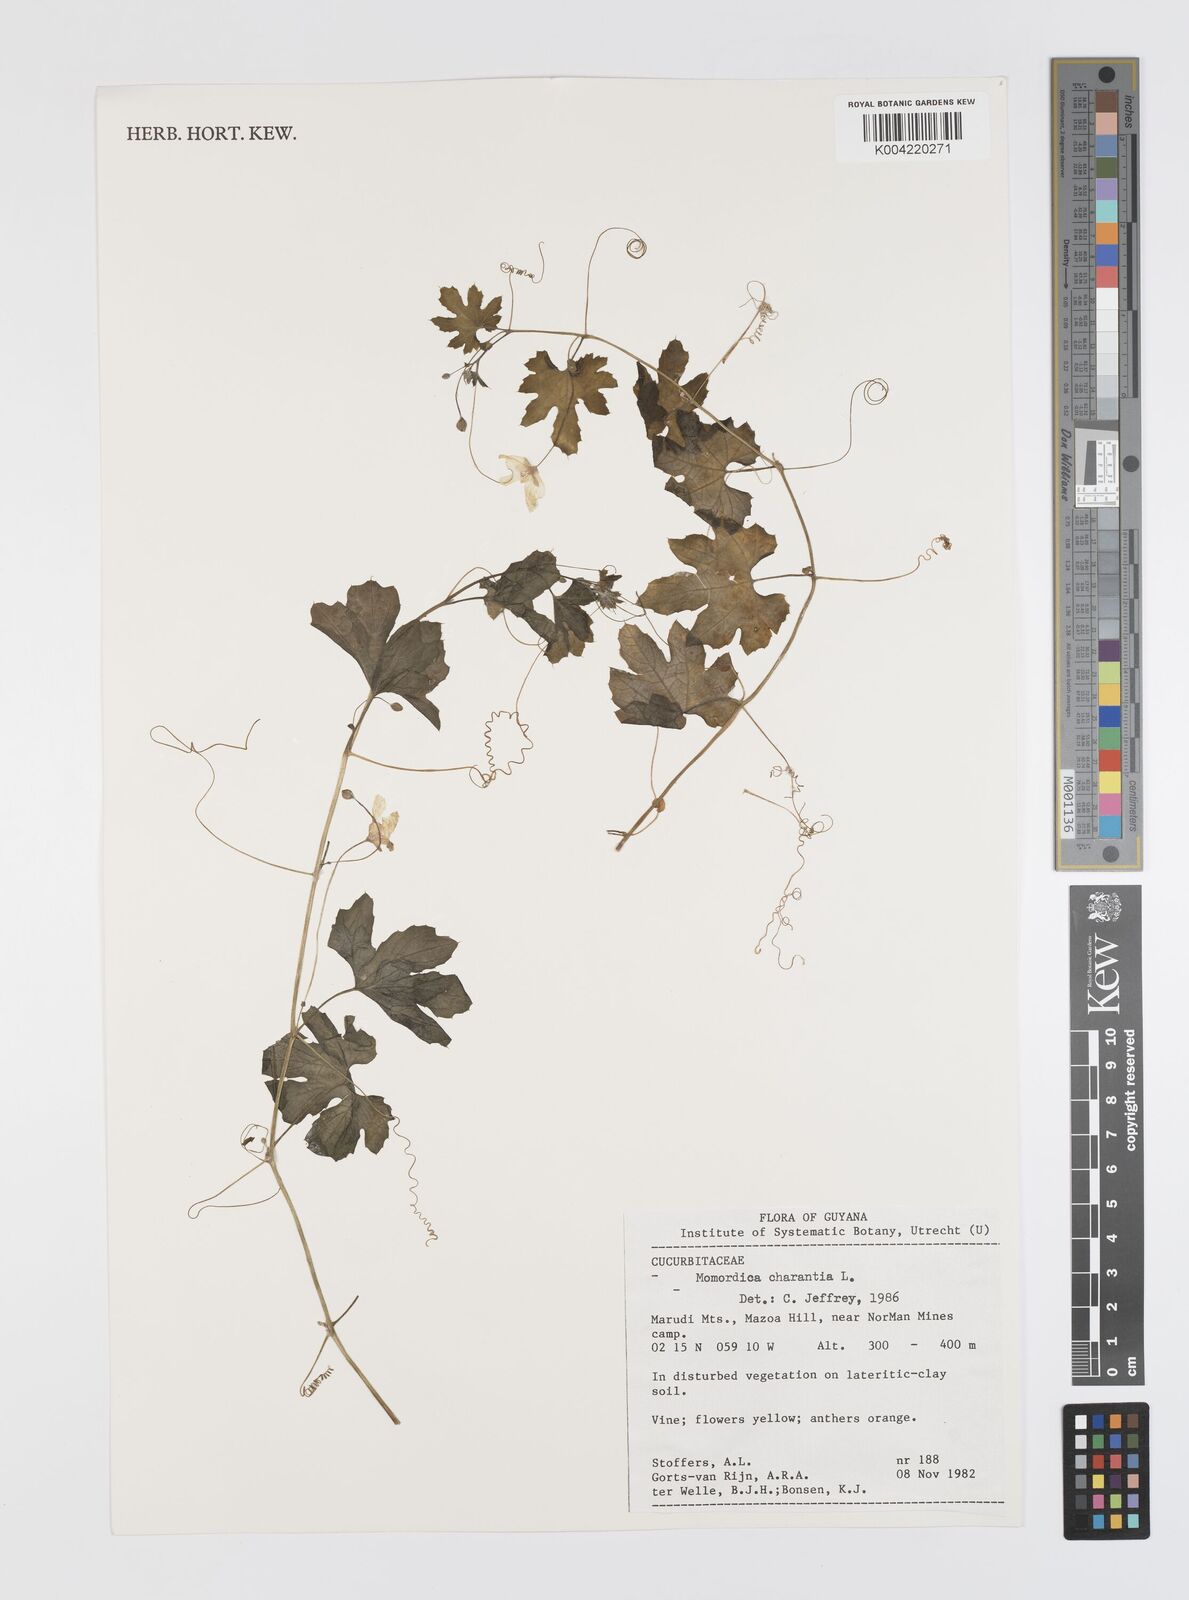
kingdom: Plantae
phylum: Tracheophyta
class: Magnoliopsida
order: Cucurbitales
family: Cucurbitaceae
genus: Momordica
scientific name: Momordica charantia
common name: Balsampear
